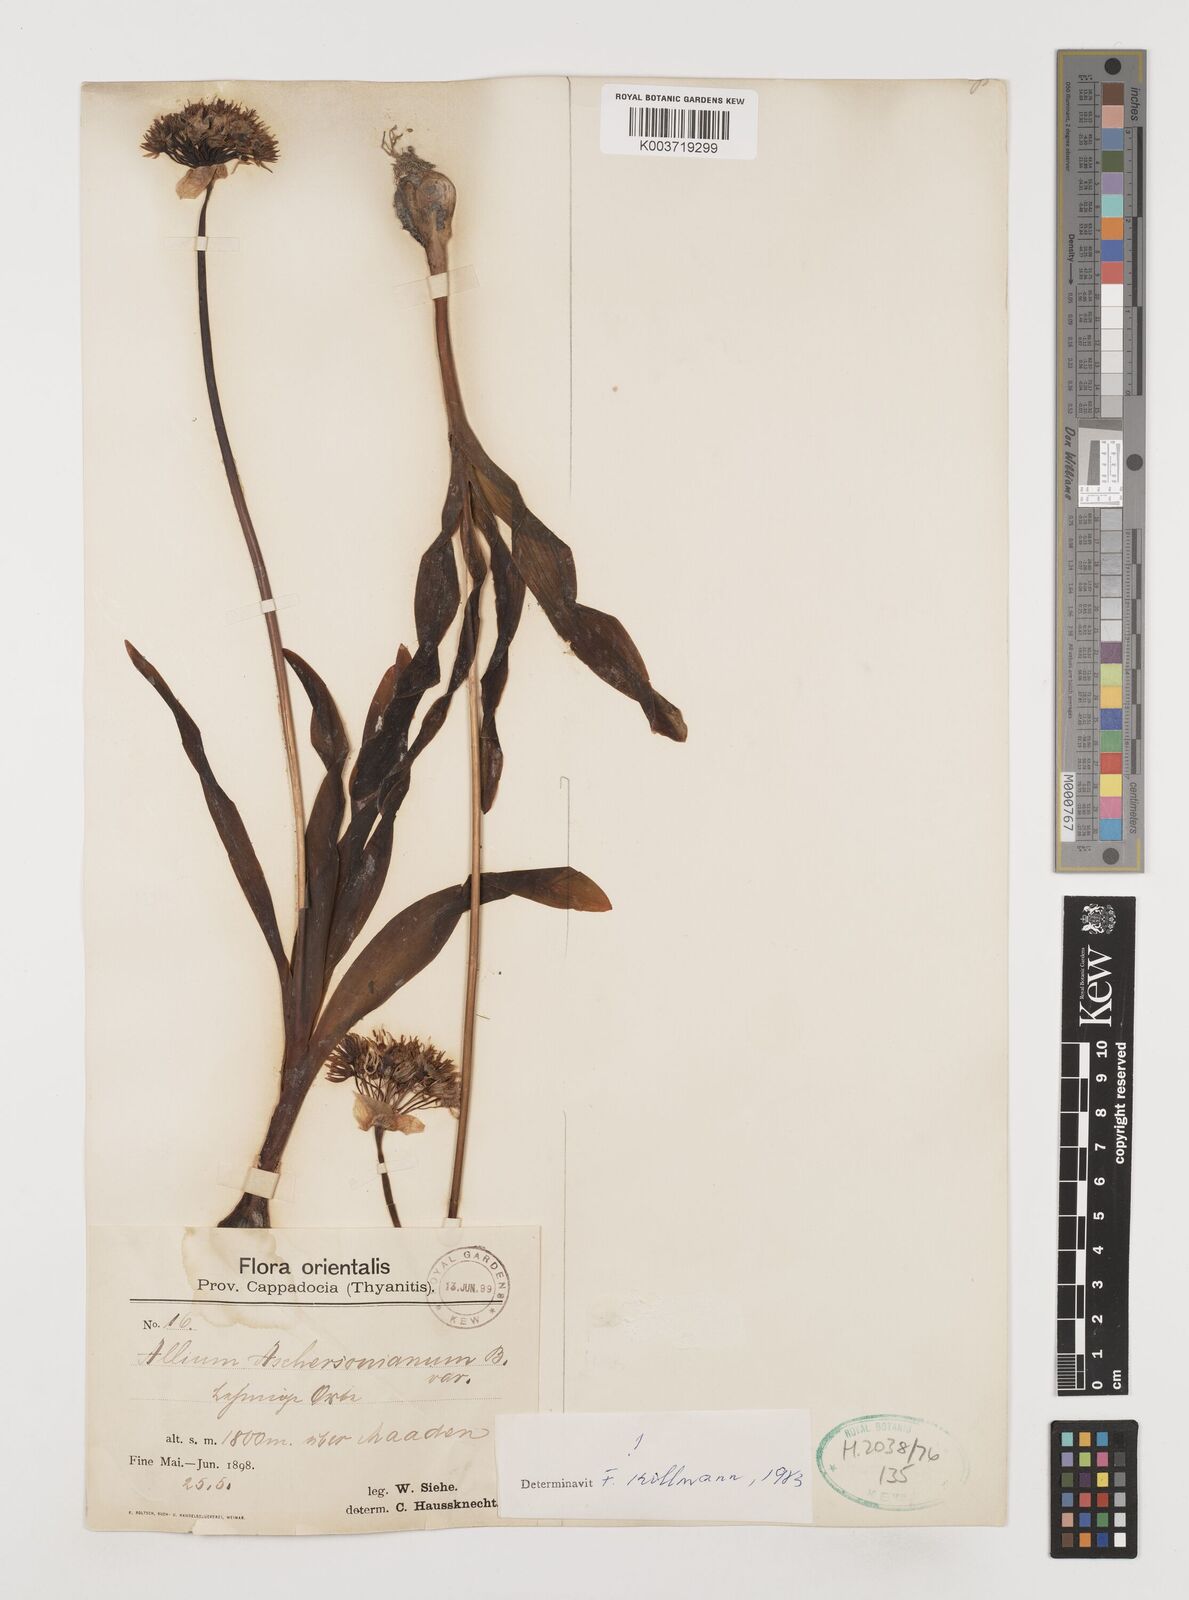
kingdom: Plantae
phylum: Tracheophyta
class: Liliopsida
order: Asparagales
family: Amaryllidaceae
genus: Allium
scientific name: Allium aschersonianum
